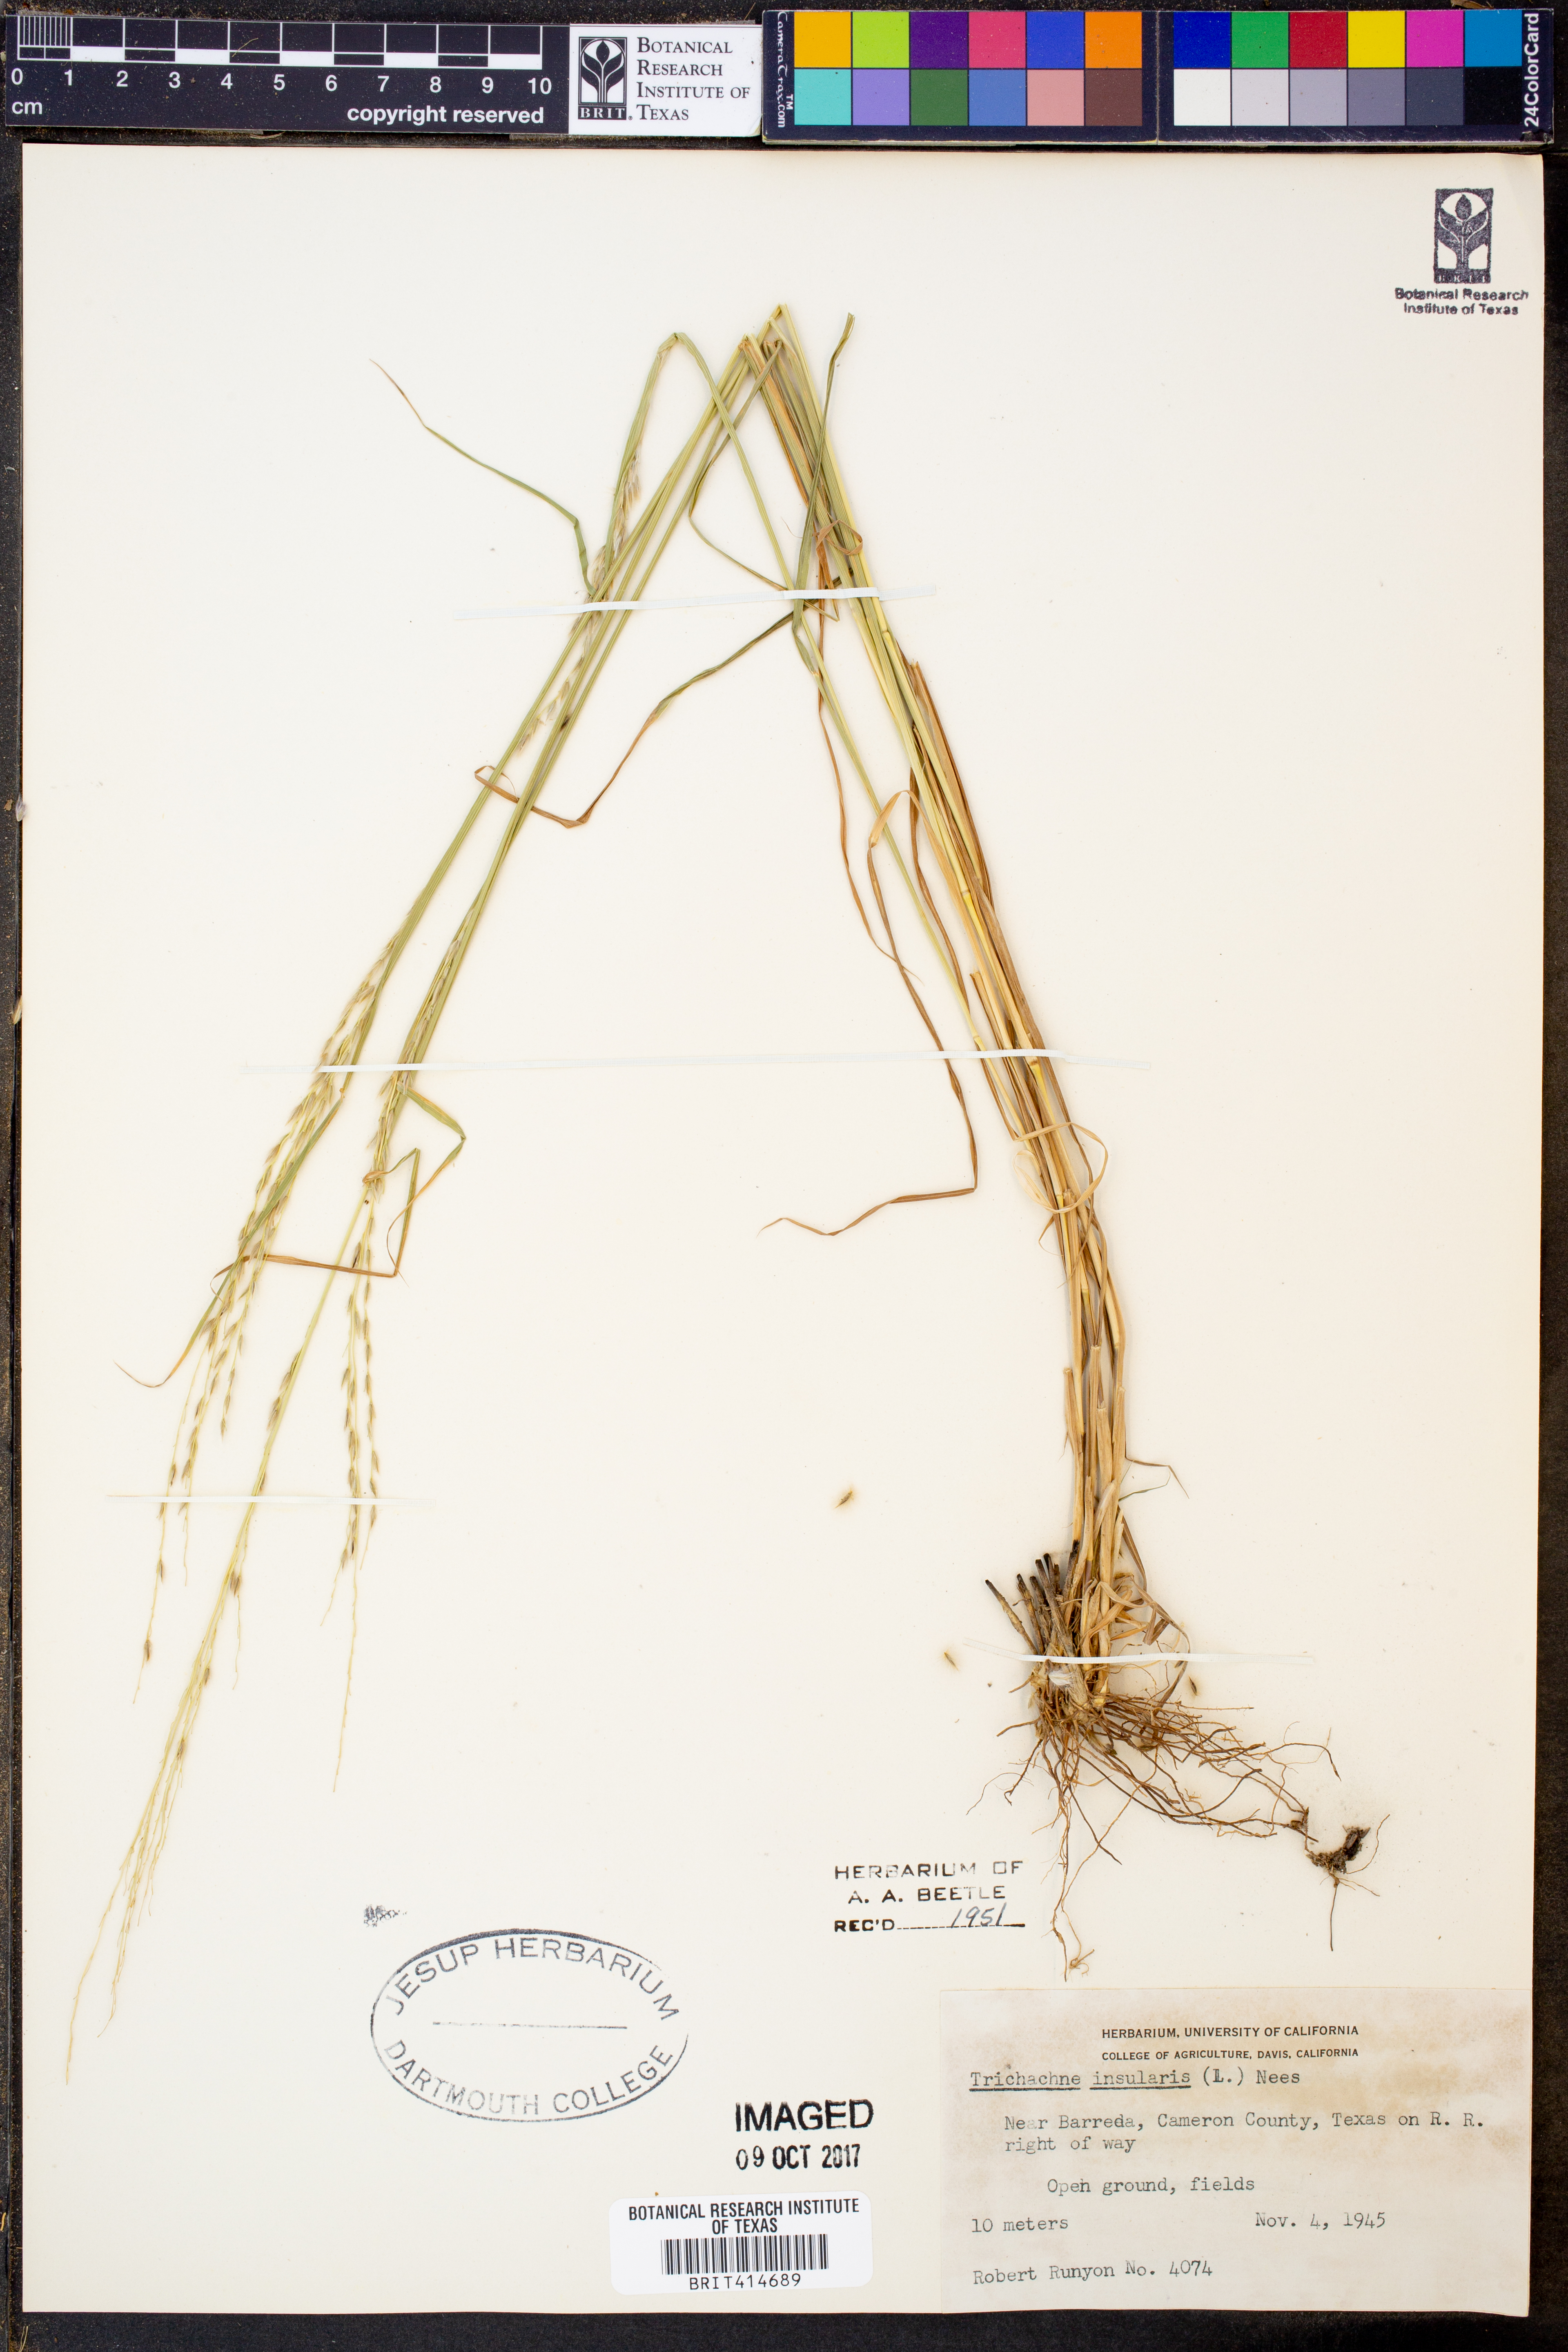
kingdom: Plantae
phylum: Tracheophyta
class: Liliopsida
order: Poales
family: Poaceae
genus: Digitaria
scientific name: Digitaria insularis
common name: Sourgrass
